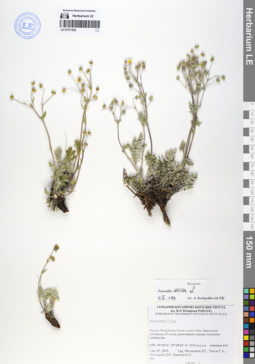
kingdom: Plantae
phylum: Tracheophyta
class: Magnoliopsida
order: Rosales
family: Rosaceae
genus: Potentilla
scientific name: Potentilla sericea
